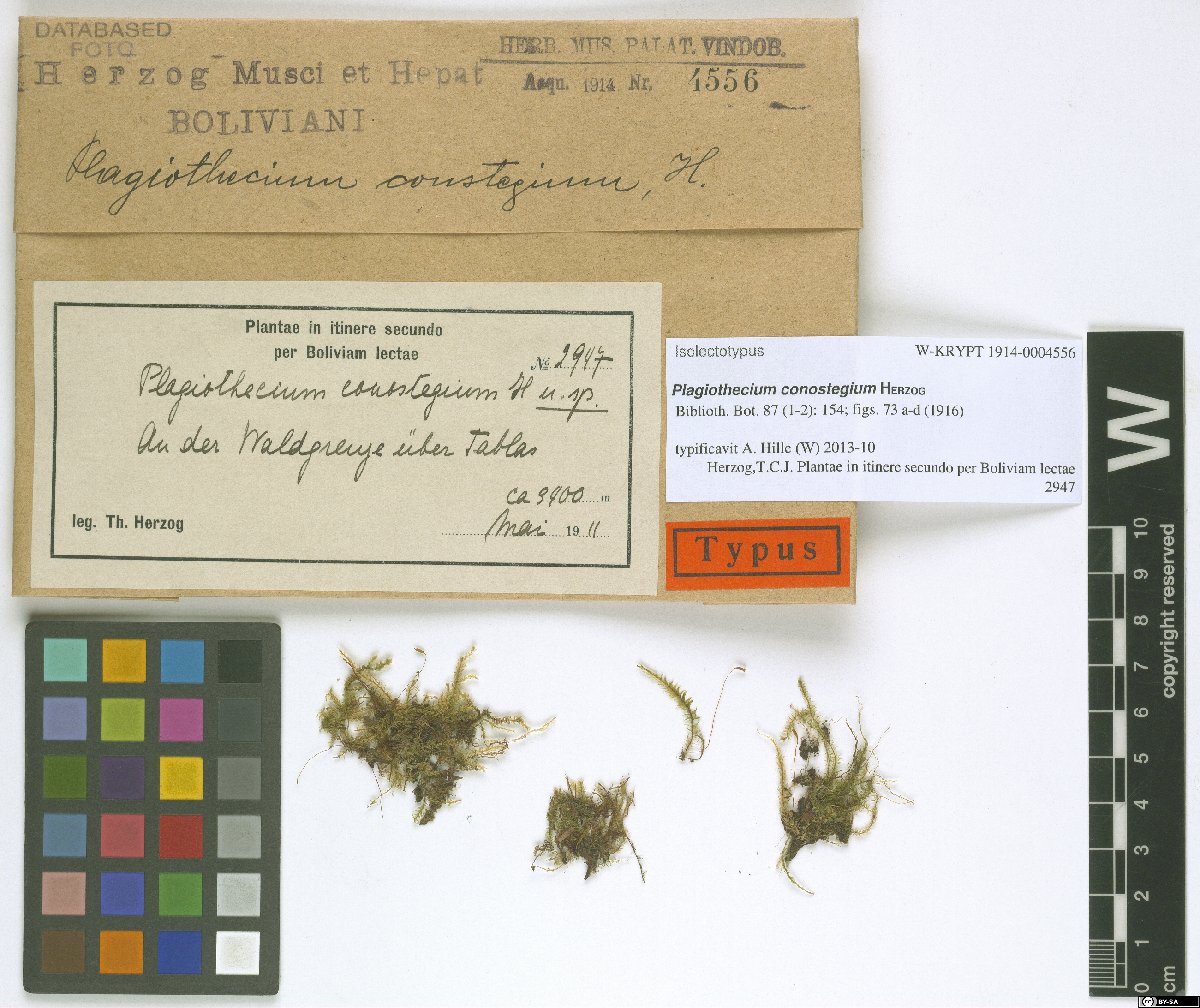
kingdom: Plantae
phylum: Bryophyta
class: Bryopsida
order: Hypnales
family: Plagiotheciaceae
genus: Plagiothecium
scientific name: Plagiothecium conostegium
